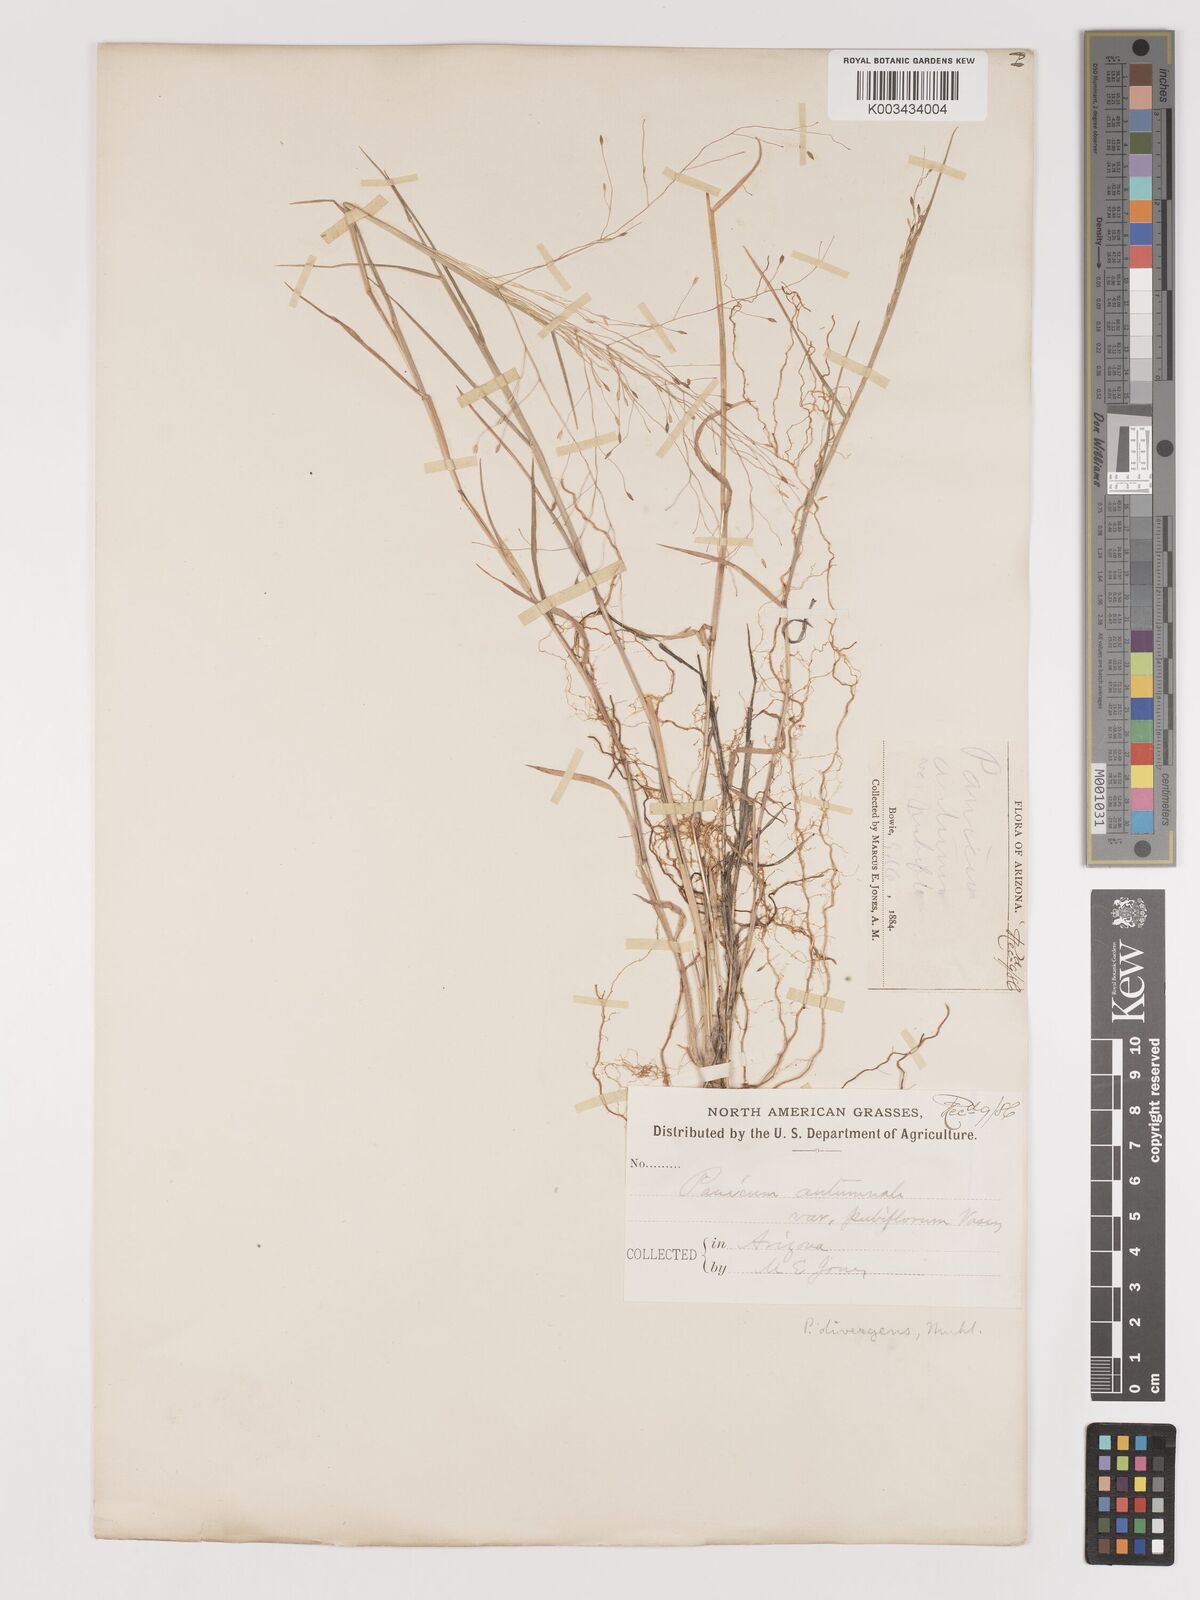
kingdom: Plantae
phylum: Tracheophyta
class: Liliopsida
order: Poales
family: Poaceae
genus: Digitaria
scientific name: Digitaria
